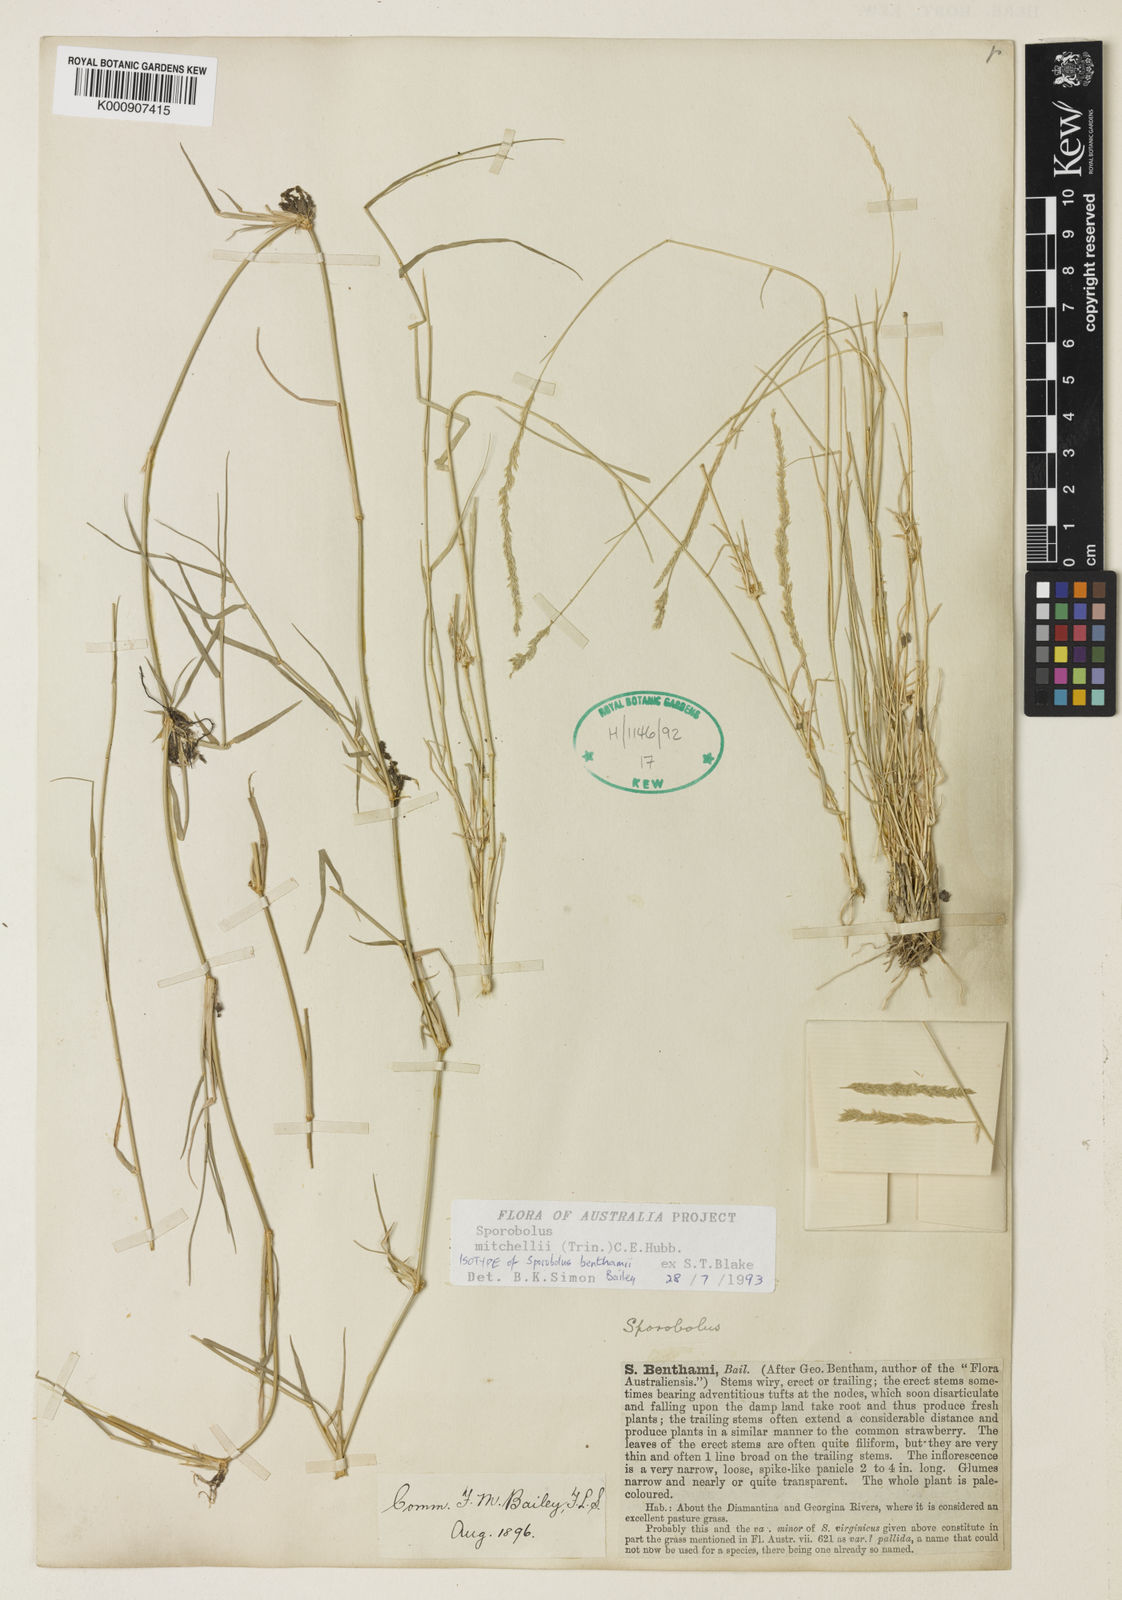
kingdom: Plantae
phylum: Tracheophyta
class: Liliopsida
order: Poales
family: Poaceae
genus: Sporobolus
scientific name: Sporobolus mitchellii
